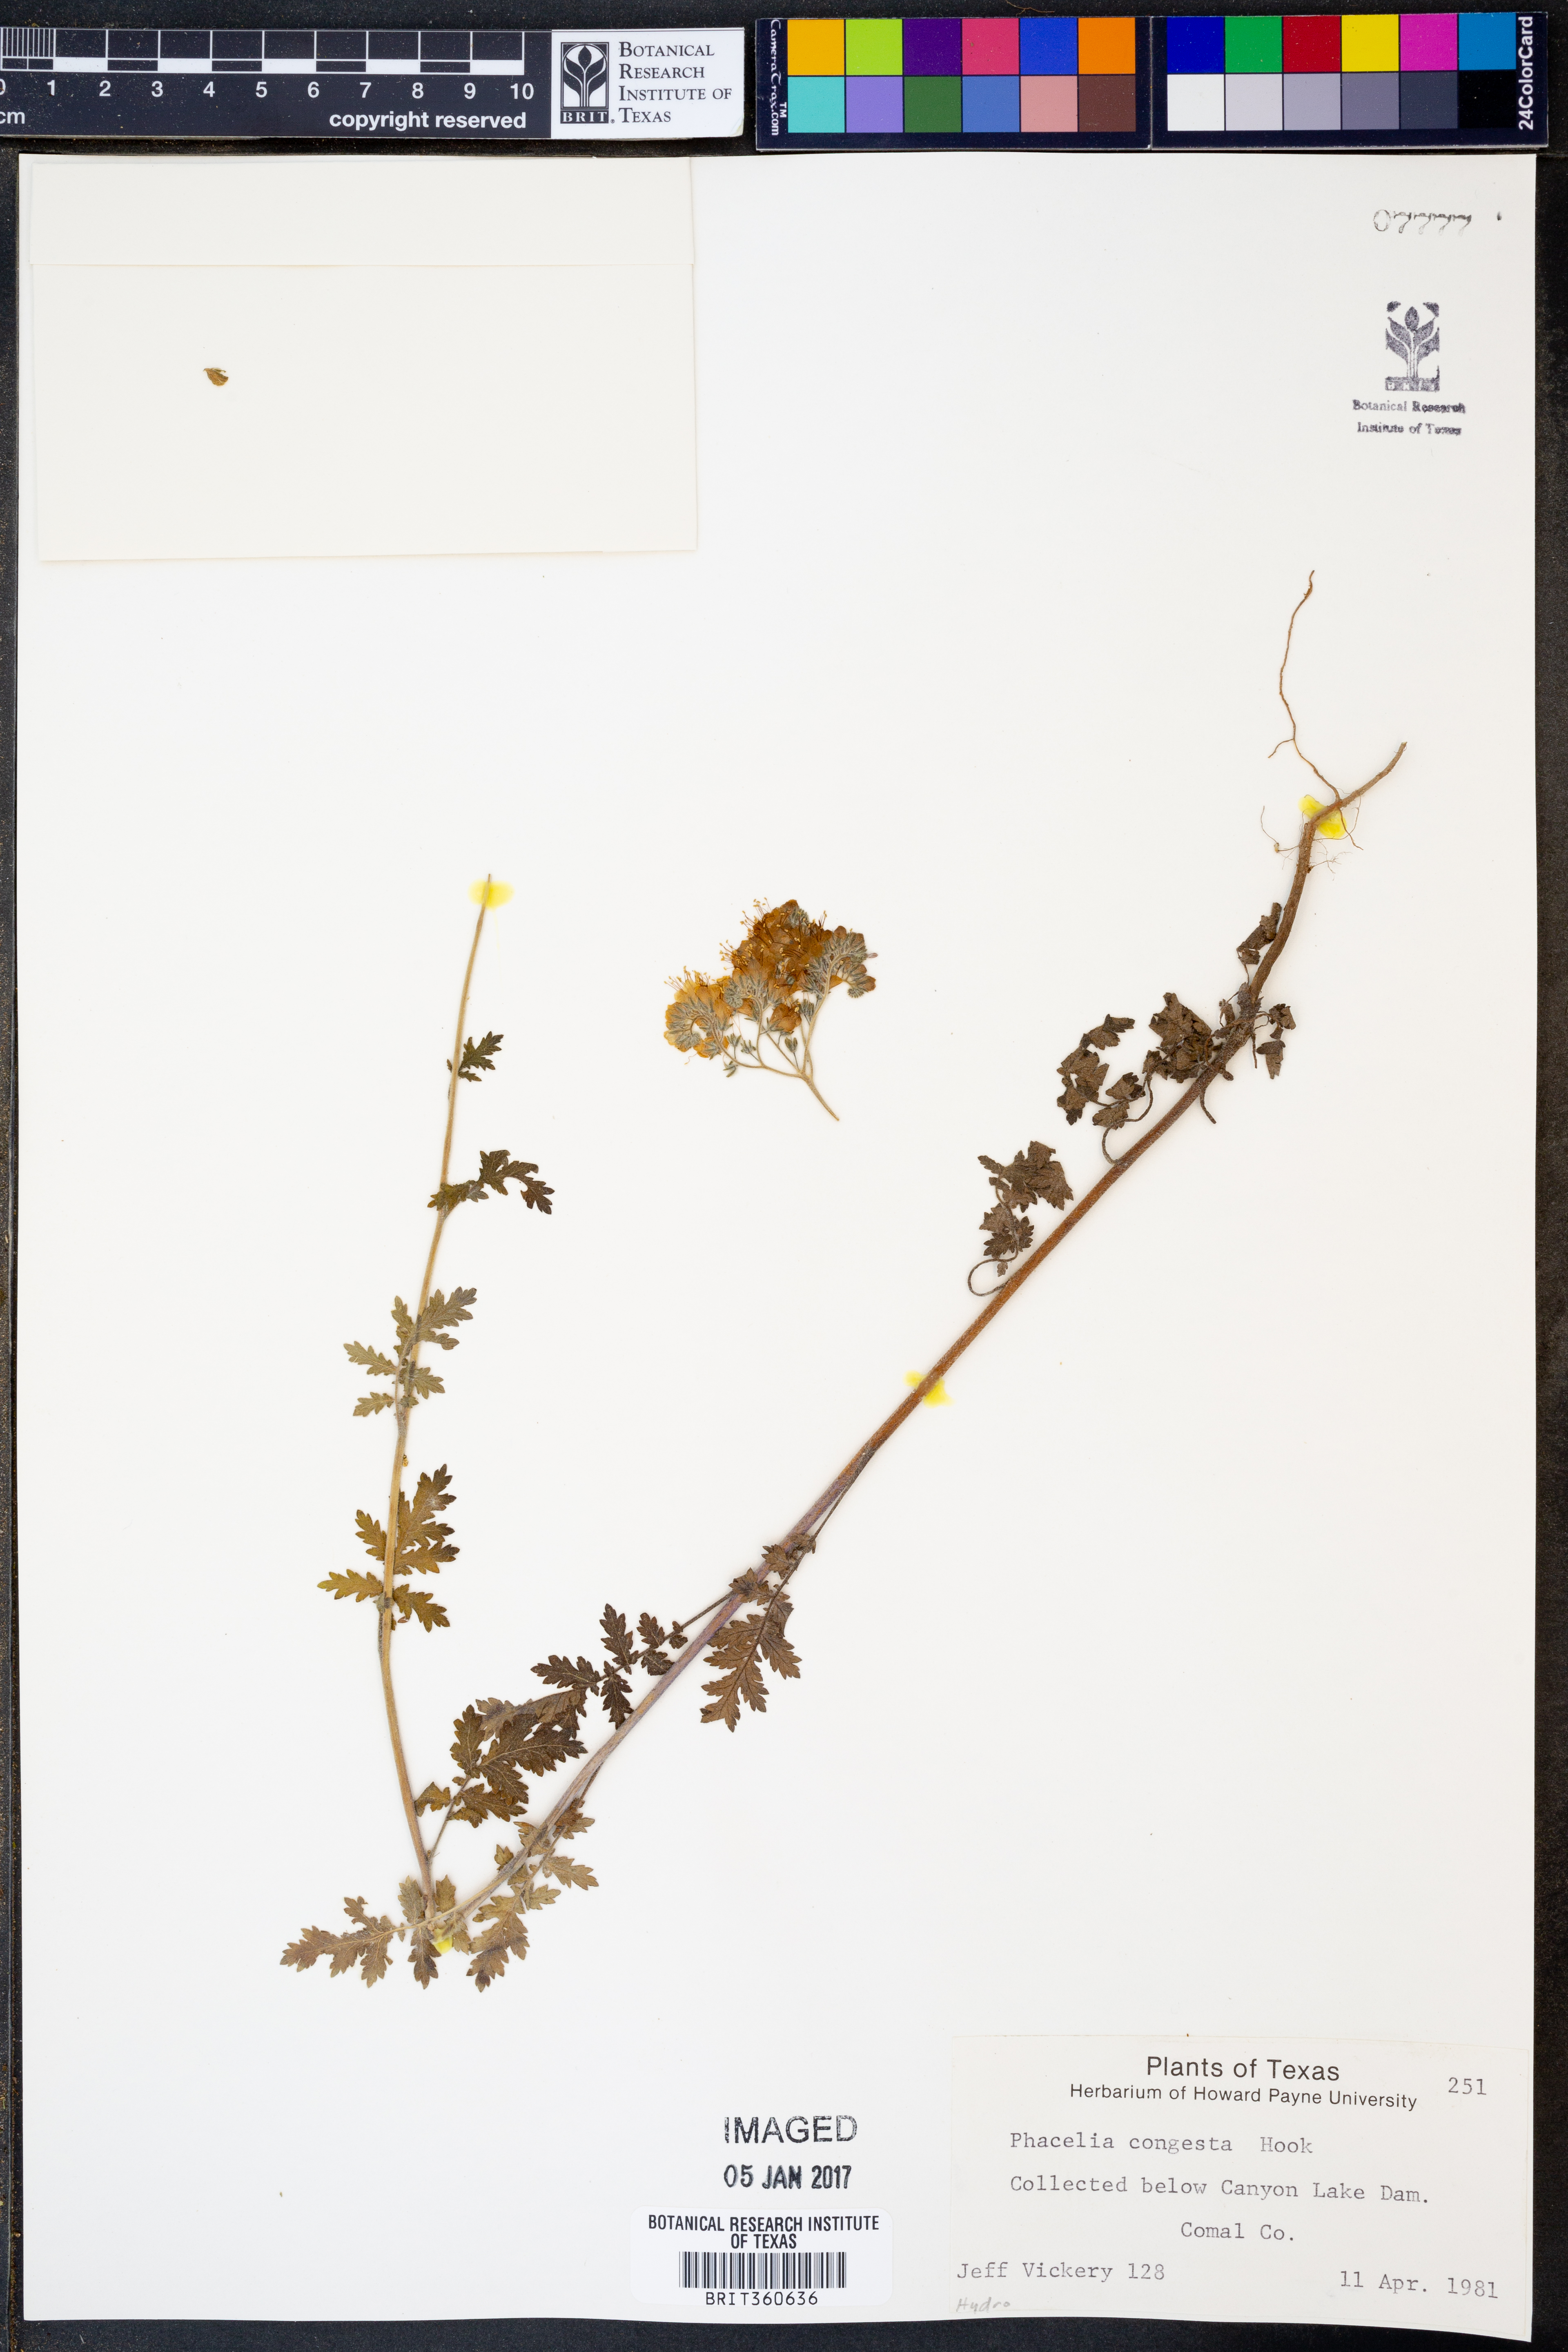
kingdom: Plantae
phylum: Tracheophyta
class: Magnoliopsida
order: Boraginales
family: Hydrophyllaceae
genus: Phacelia
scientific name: Phacelia congesta
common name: Blue curls
